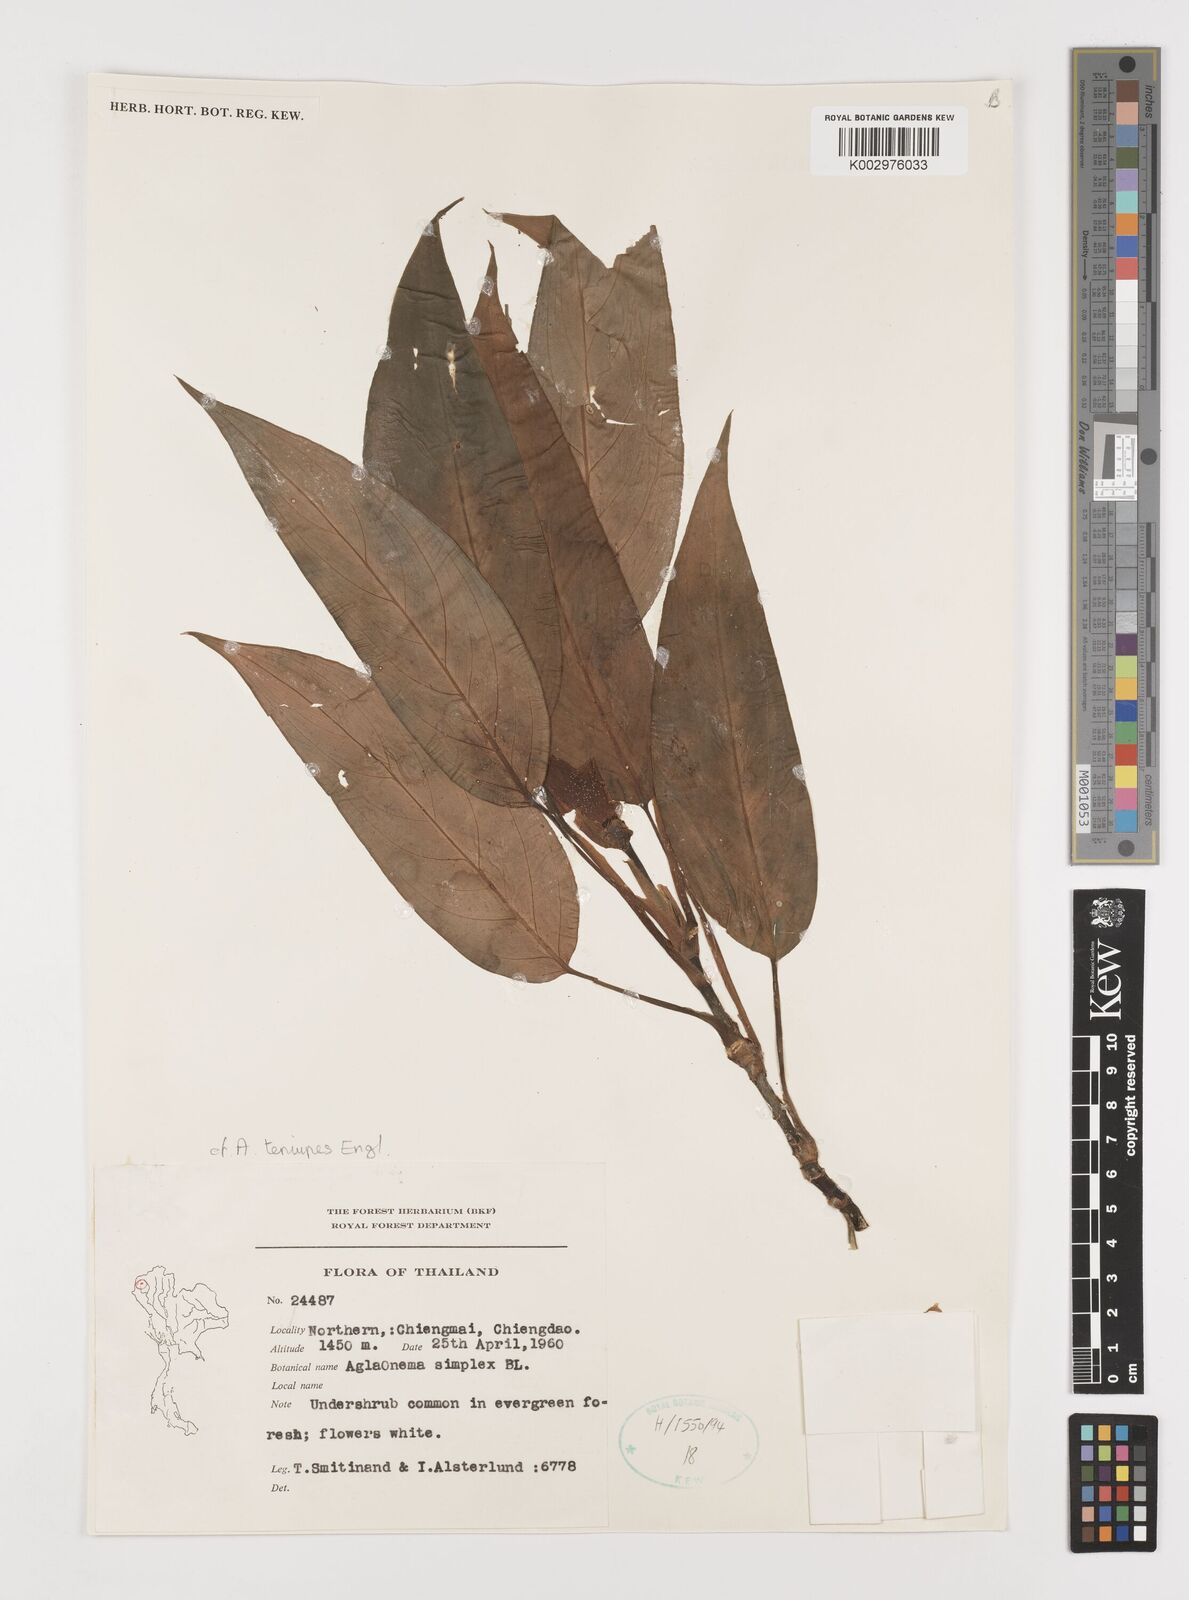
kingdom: Plantae
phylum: Tracheophyta
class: Liliopsida
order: Alismatales
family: Araceae
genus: Aglaonema
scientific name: Aglaonema simplex
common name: Malayan-sword
